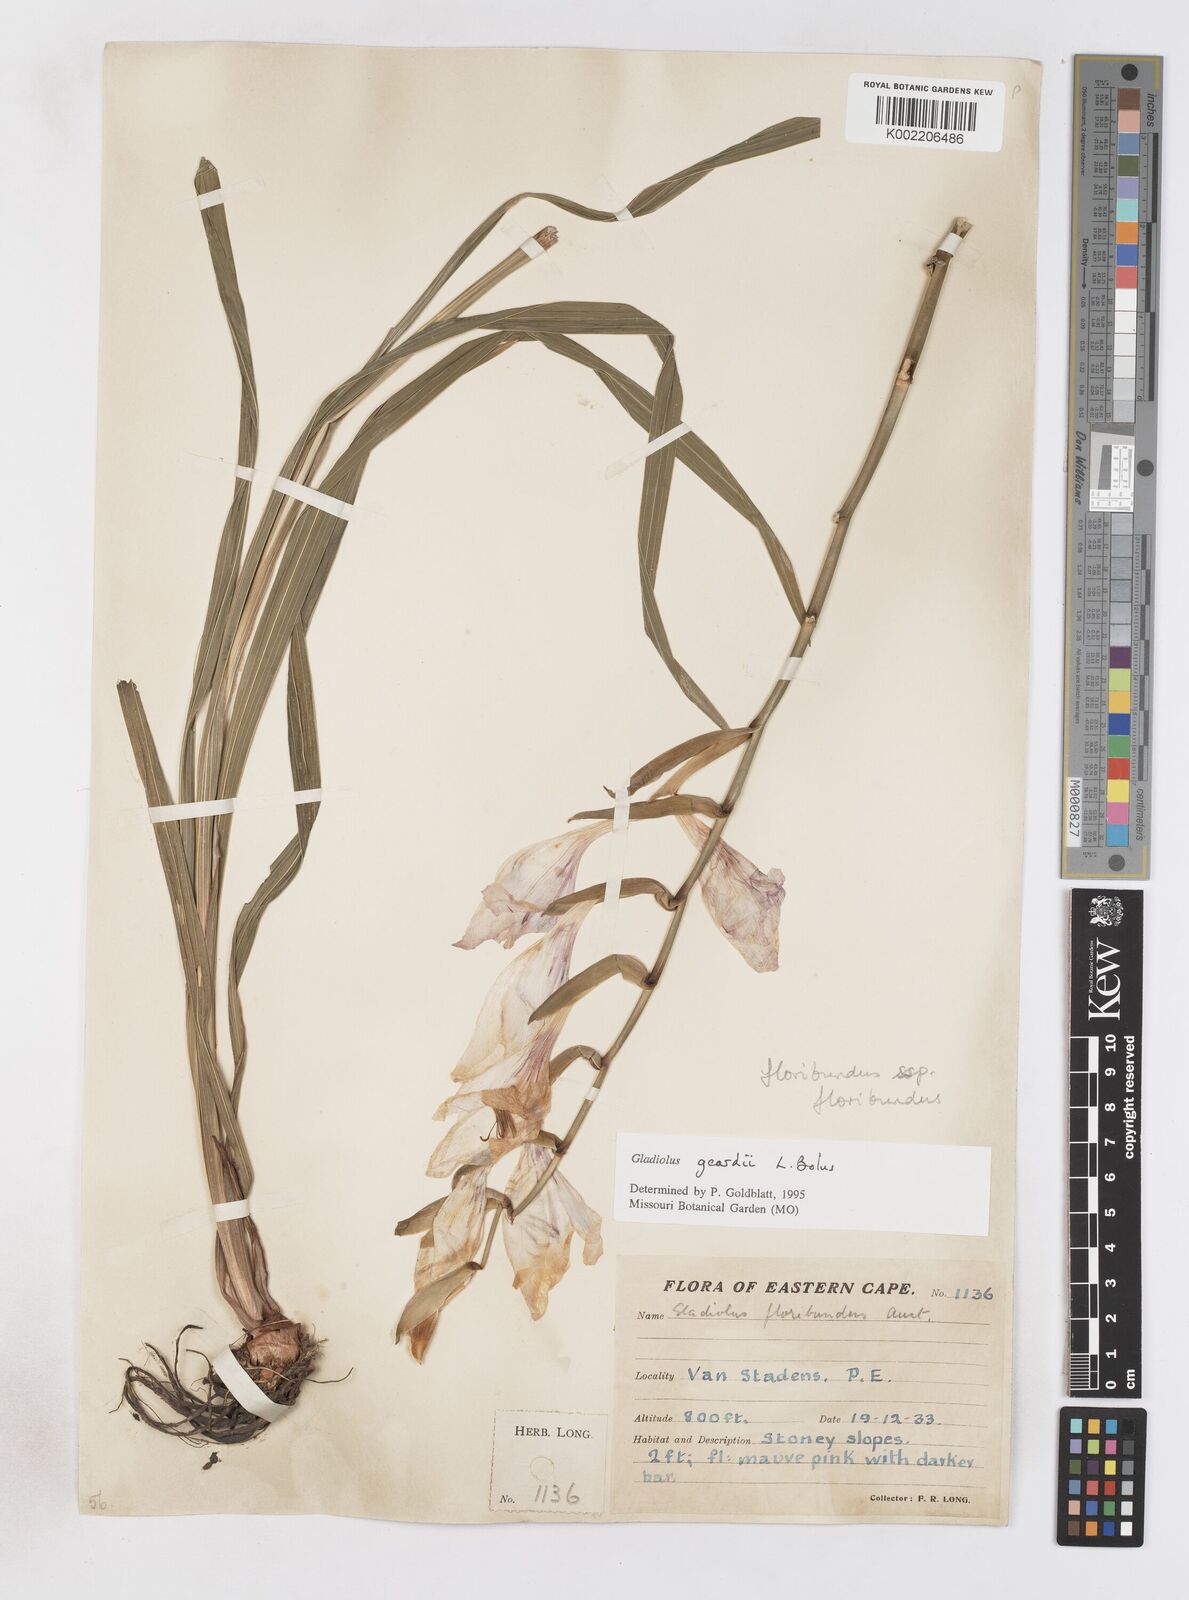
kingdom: Plantae
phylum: Tracheophyta
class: Liliopsida
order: Asparagales
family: Iridaceae
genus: Gladiolus
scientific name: Gladiolus geardii
